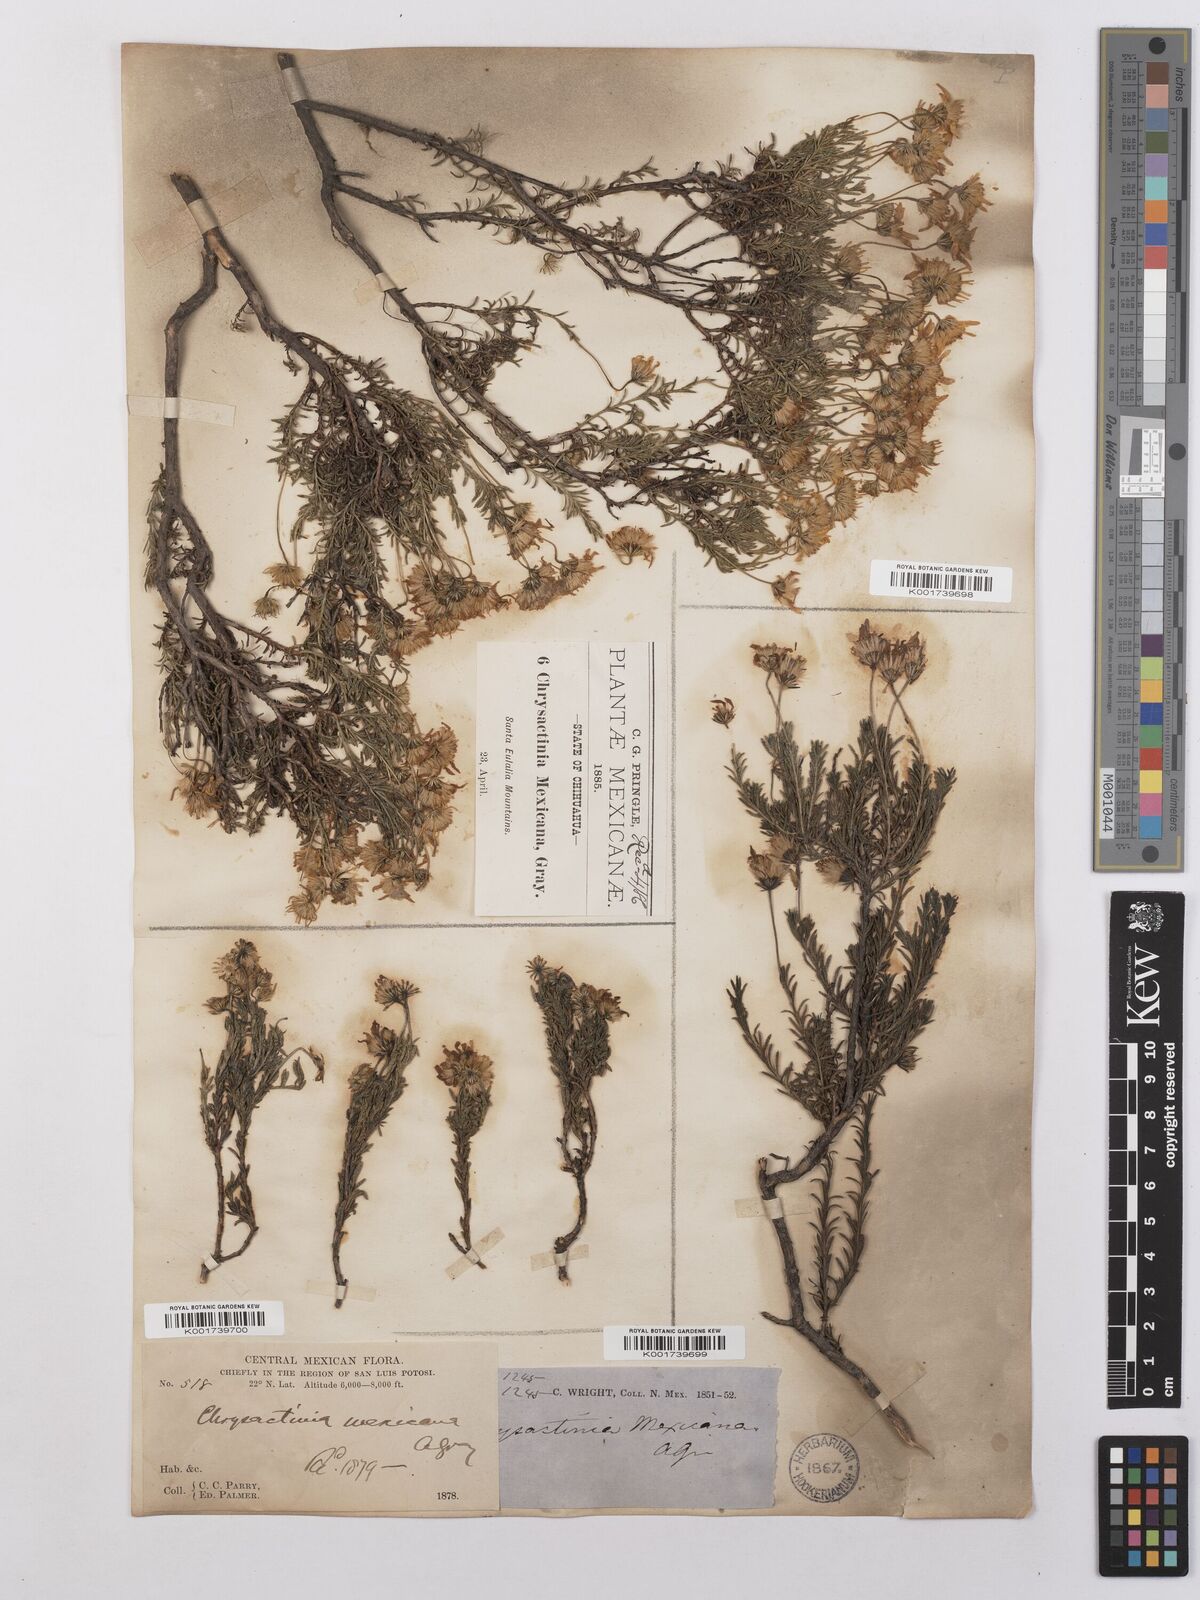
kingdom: Plantae
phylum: Tracheophyta
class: Magnoliopsida
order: Asterales
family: Asteraceae
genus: Chrysactinia
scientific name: Chrysactinia mexicana
